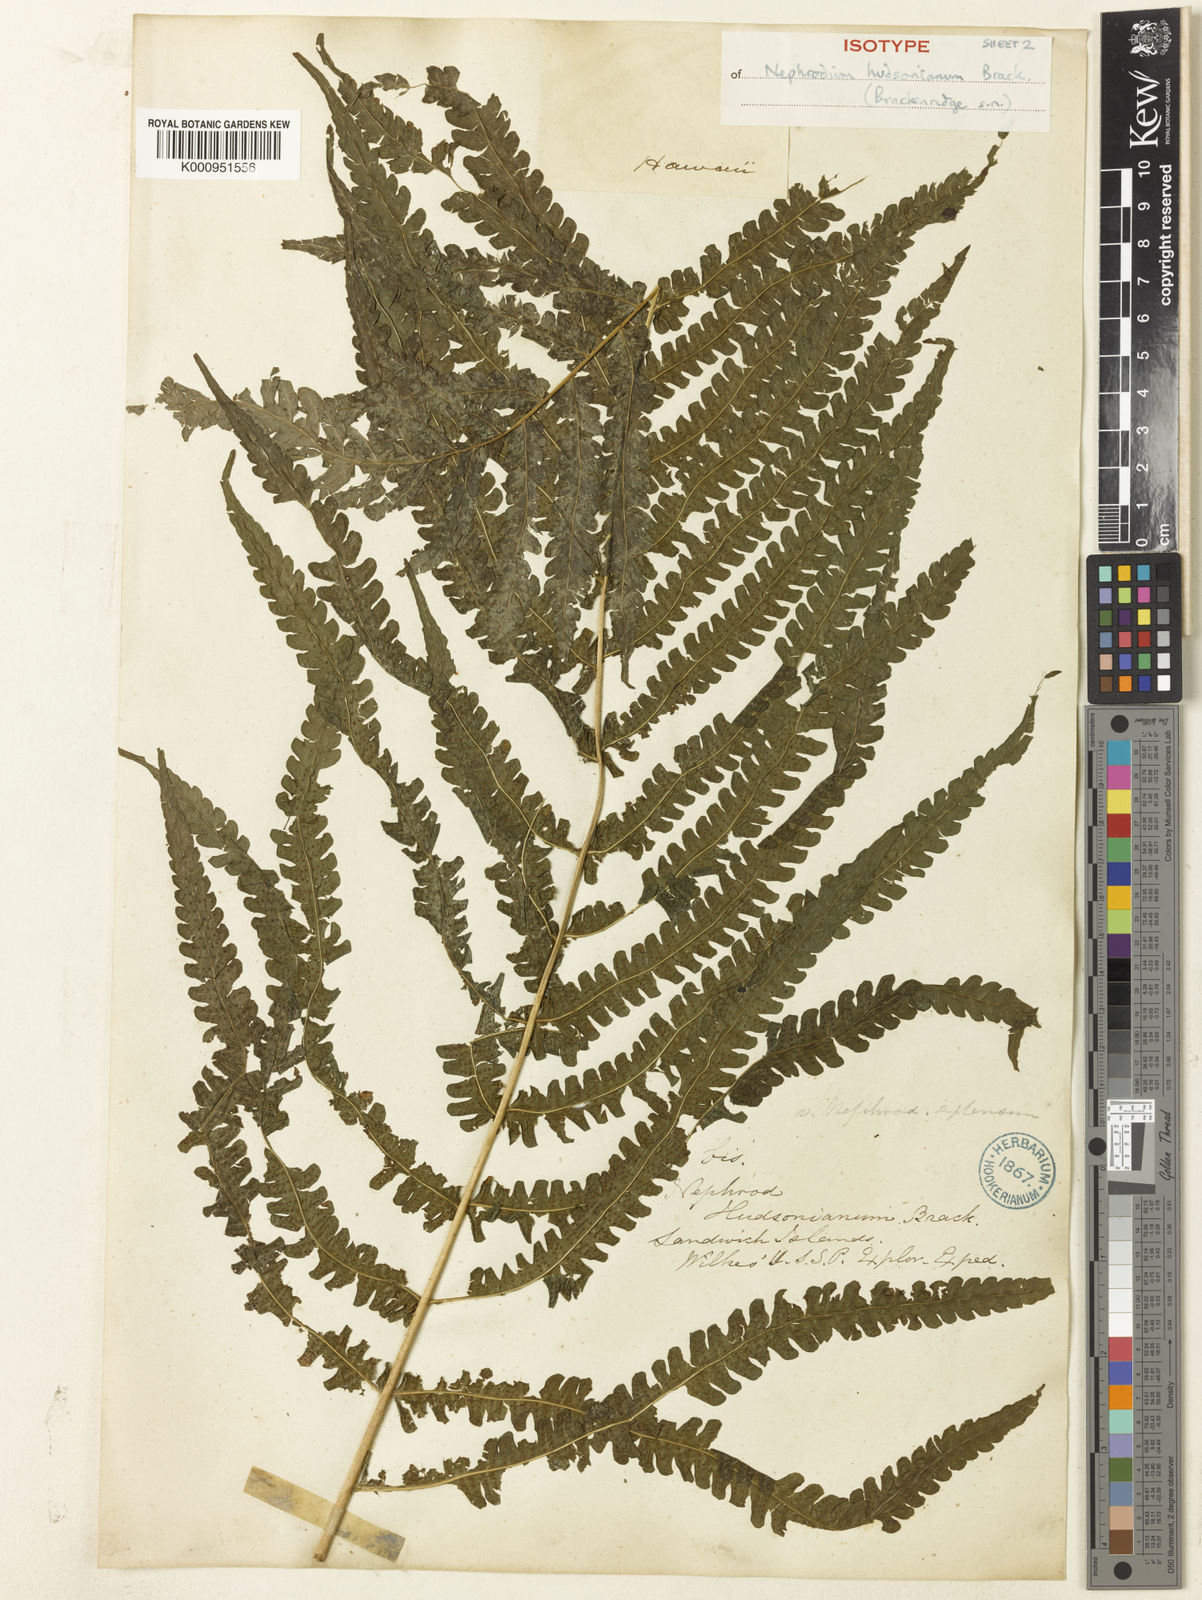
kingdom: Plantae
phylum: Tracheophyta
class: Polypodiopsida
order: Polypodiales
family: Thelypteridaceae
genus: Reholttumia
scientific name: Reholttumia hudsoniana
